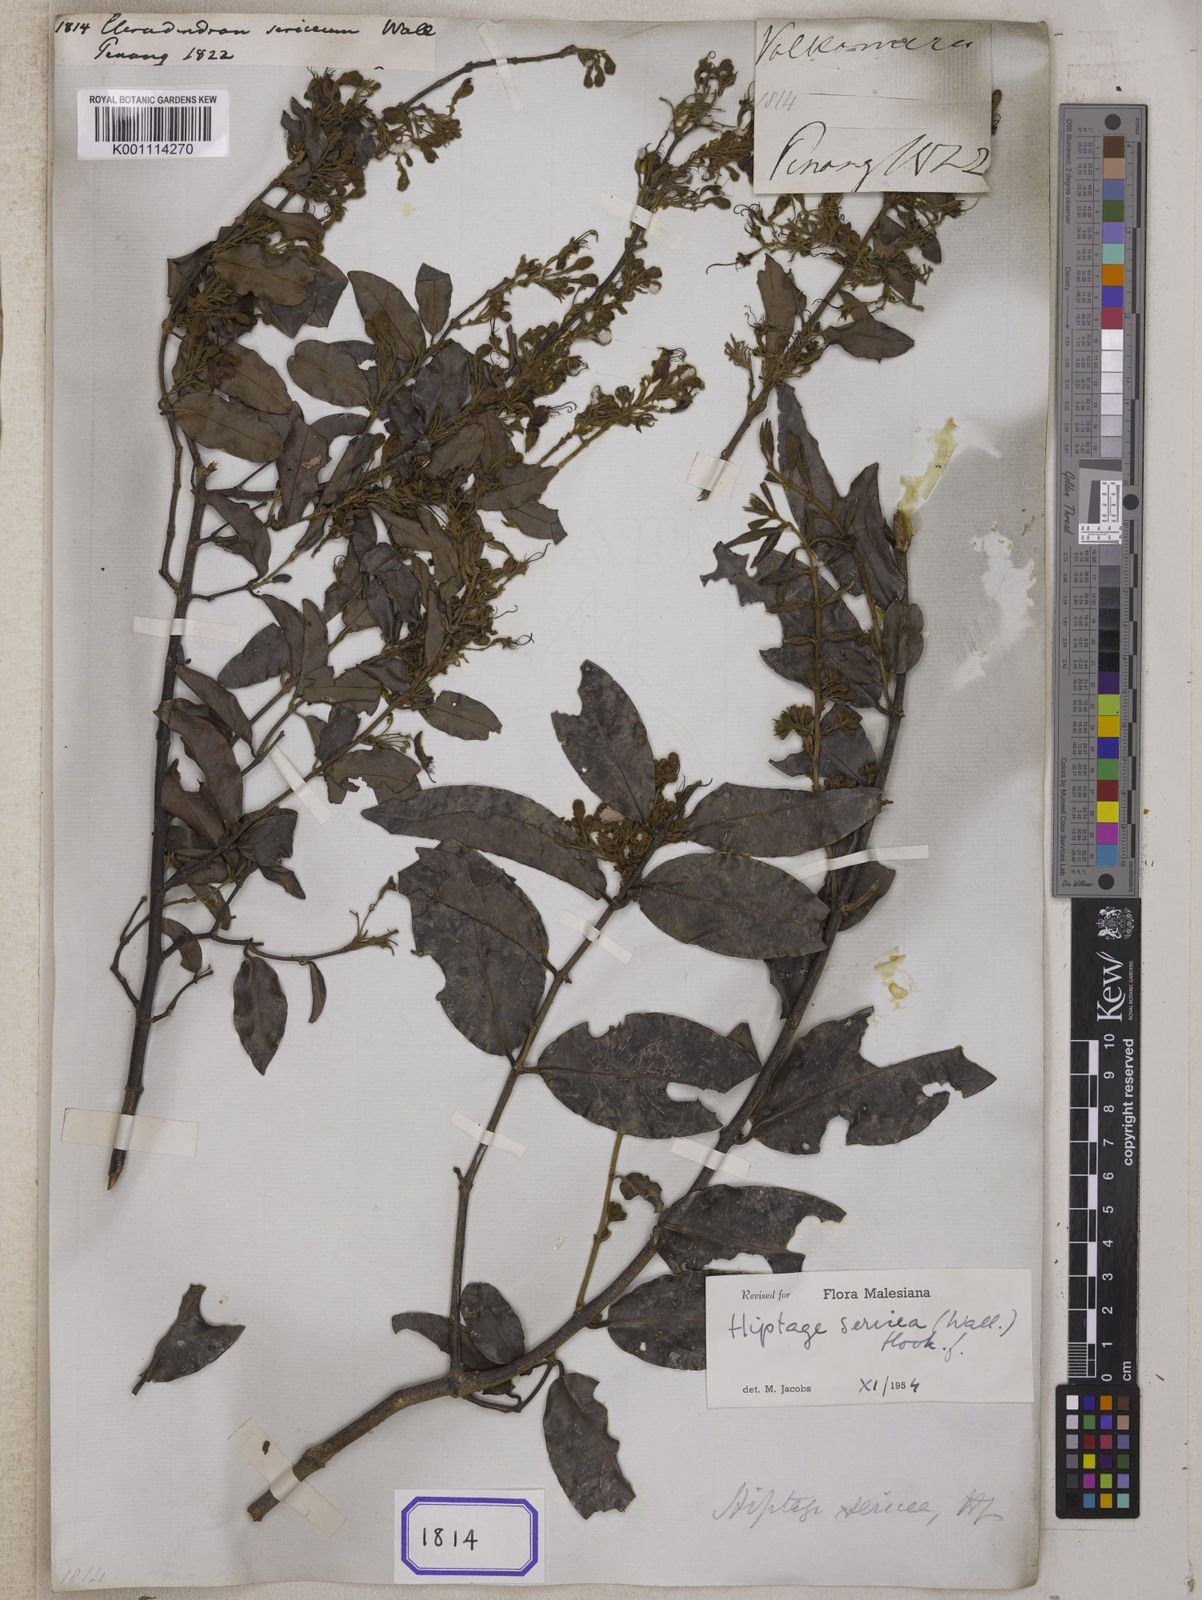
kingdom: Plantae
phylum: Tracheophyta
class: Magnoliopsida
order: Lamiales
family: Lamiaceae
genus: Clerodendrum
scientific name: Clerodendrum
